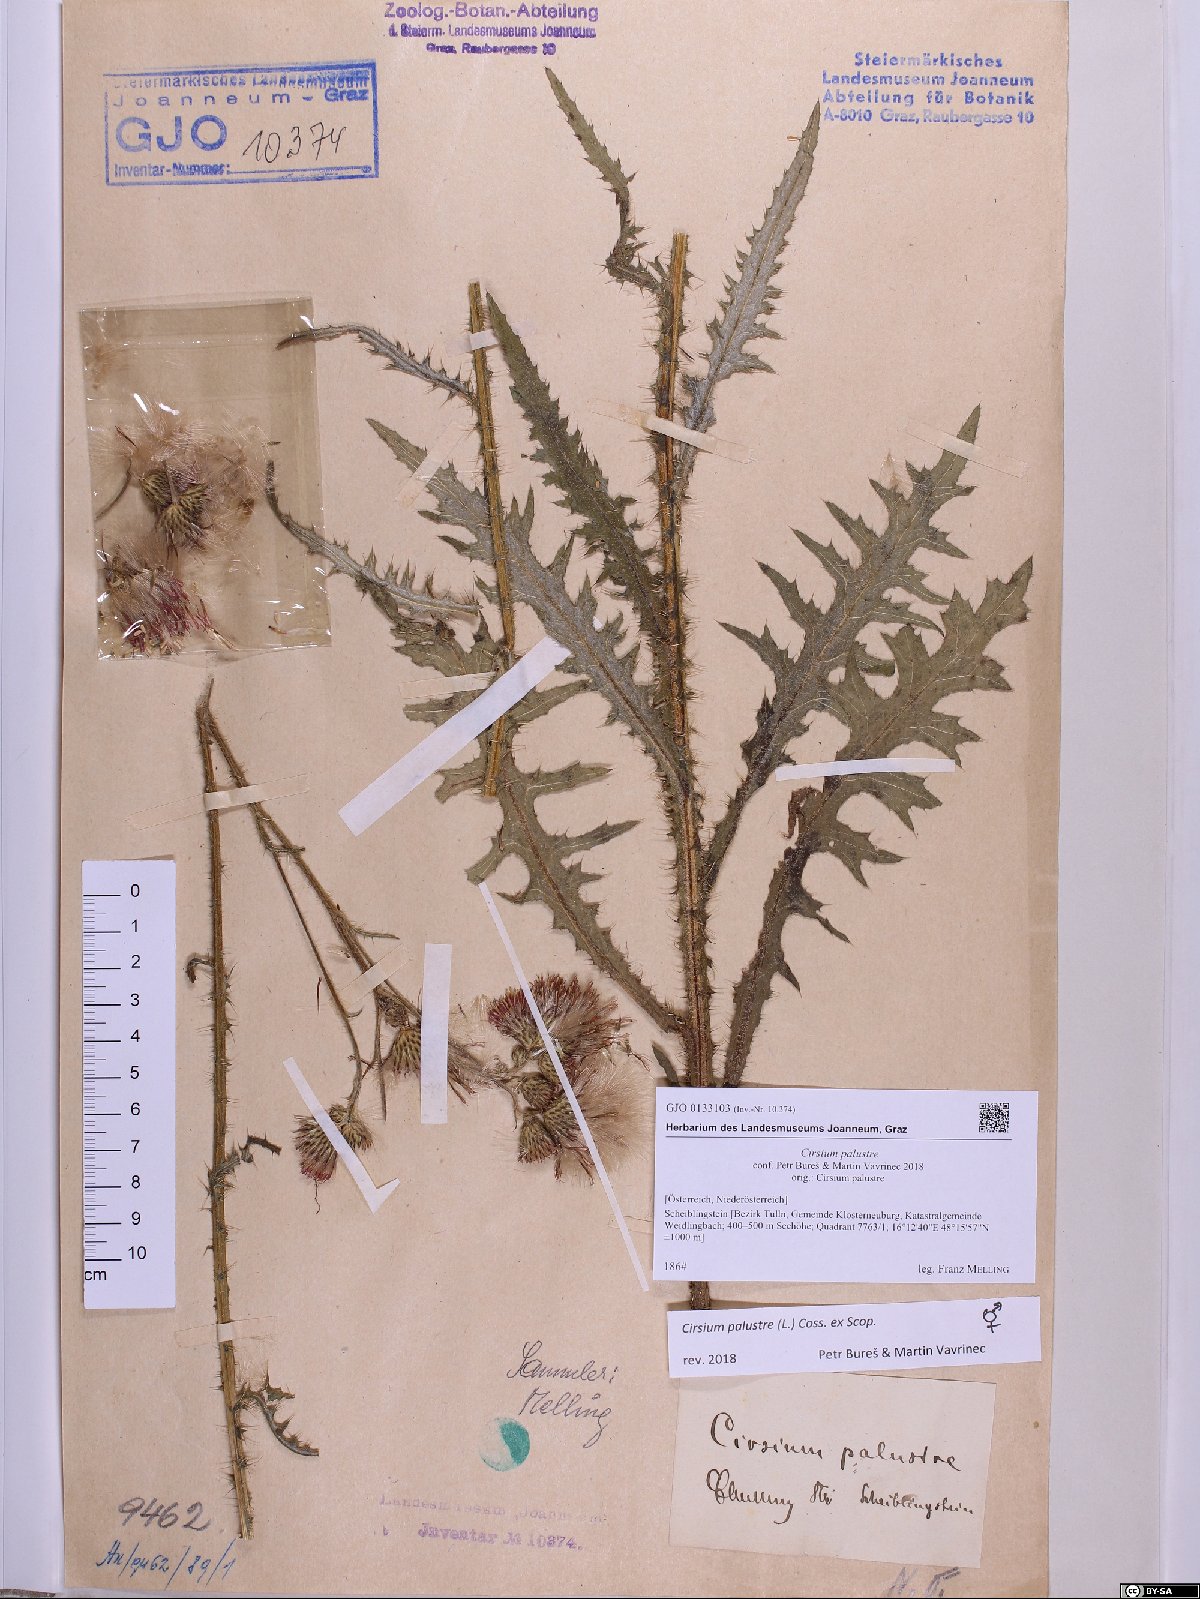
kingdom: Plantae
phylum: Tracheophyta
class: Magnoliopsida
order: Asterales
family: Asteraceae
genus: Cirsium
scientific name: Cirsium palustre
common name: Marsh thistle
